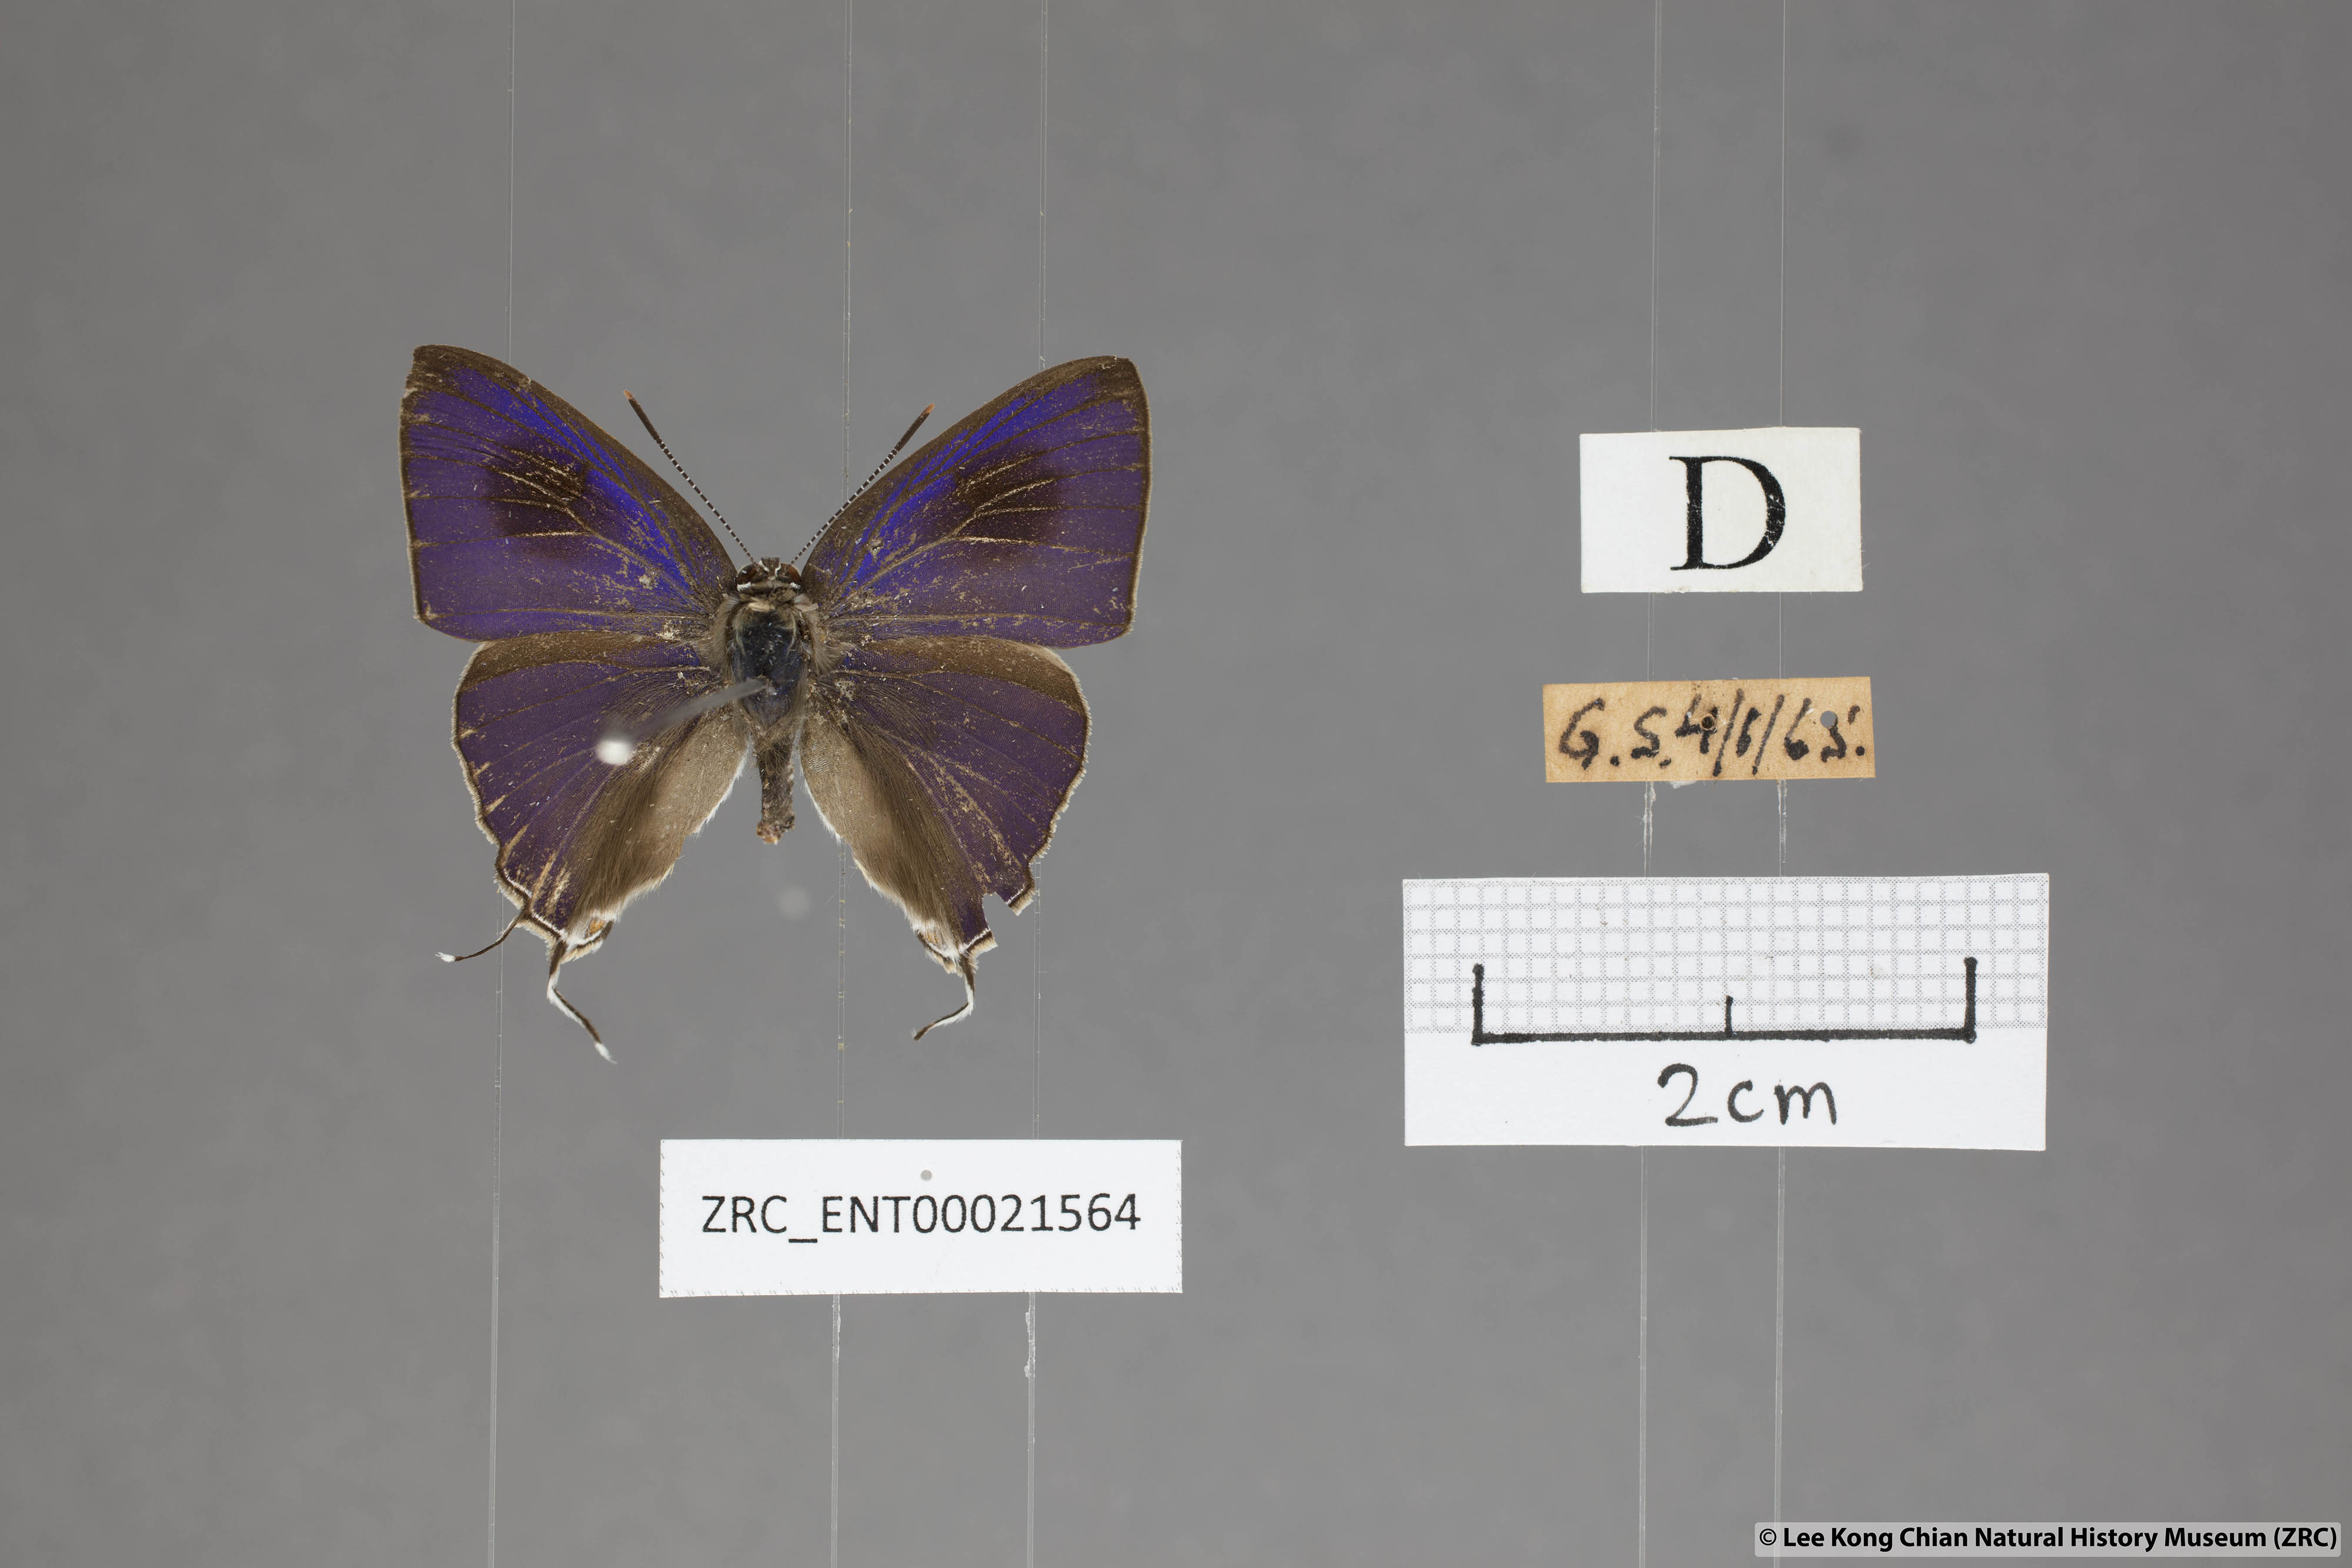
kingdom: Animalia
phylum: Arthropoda
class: Insecta
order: Lepidoptera
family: Lycaenidae
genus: Hypolycaena
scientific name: Hypolycaena erylus
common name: Common tit
